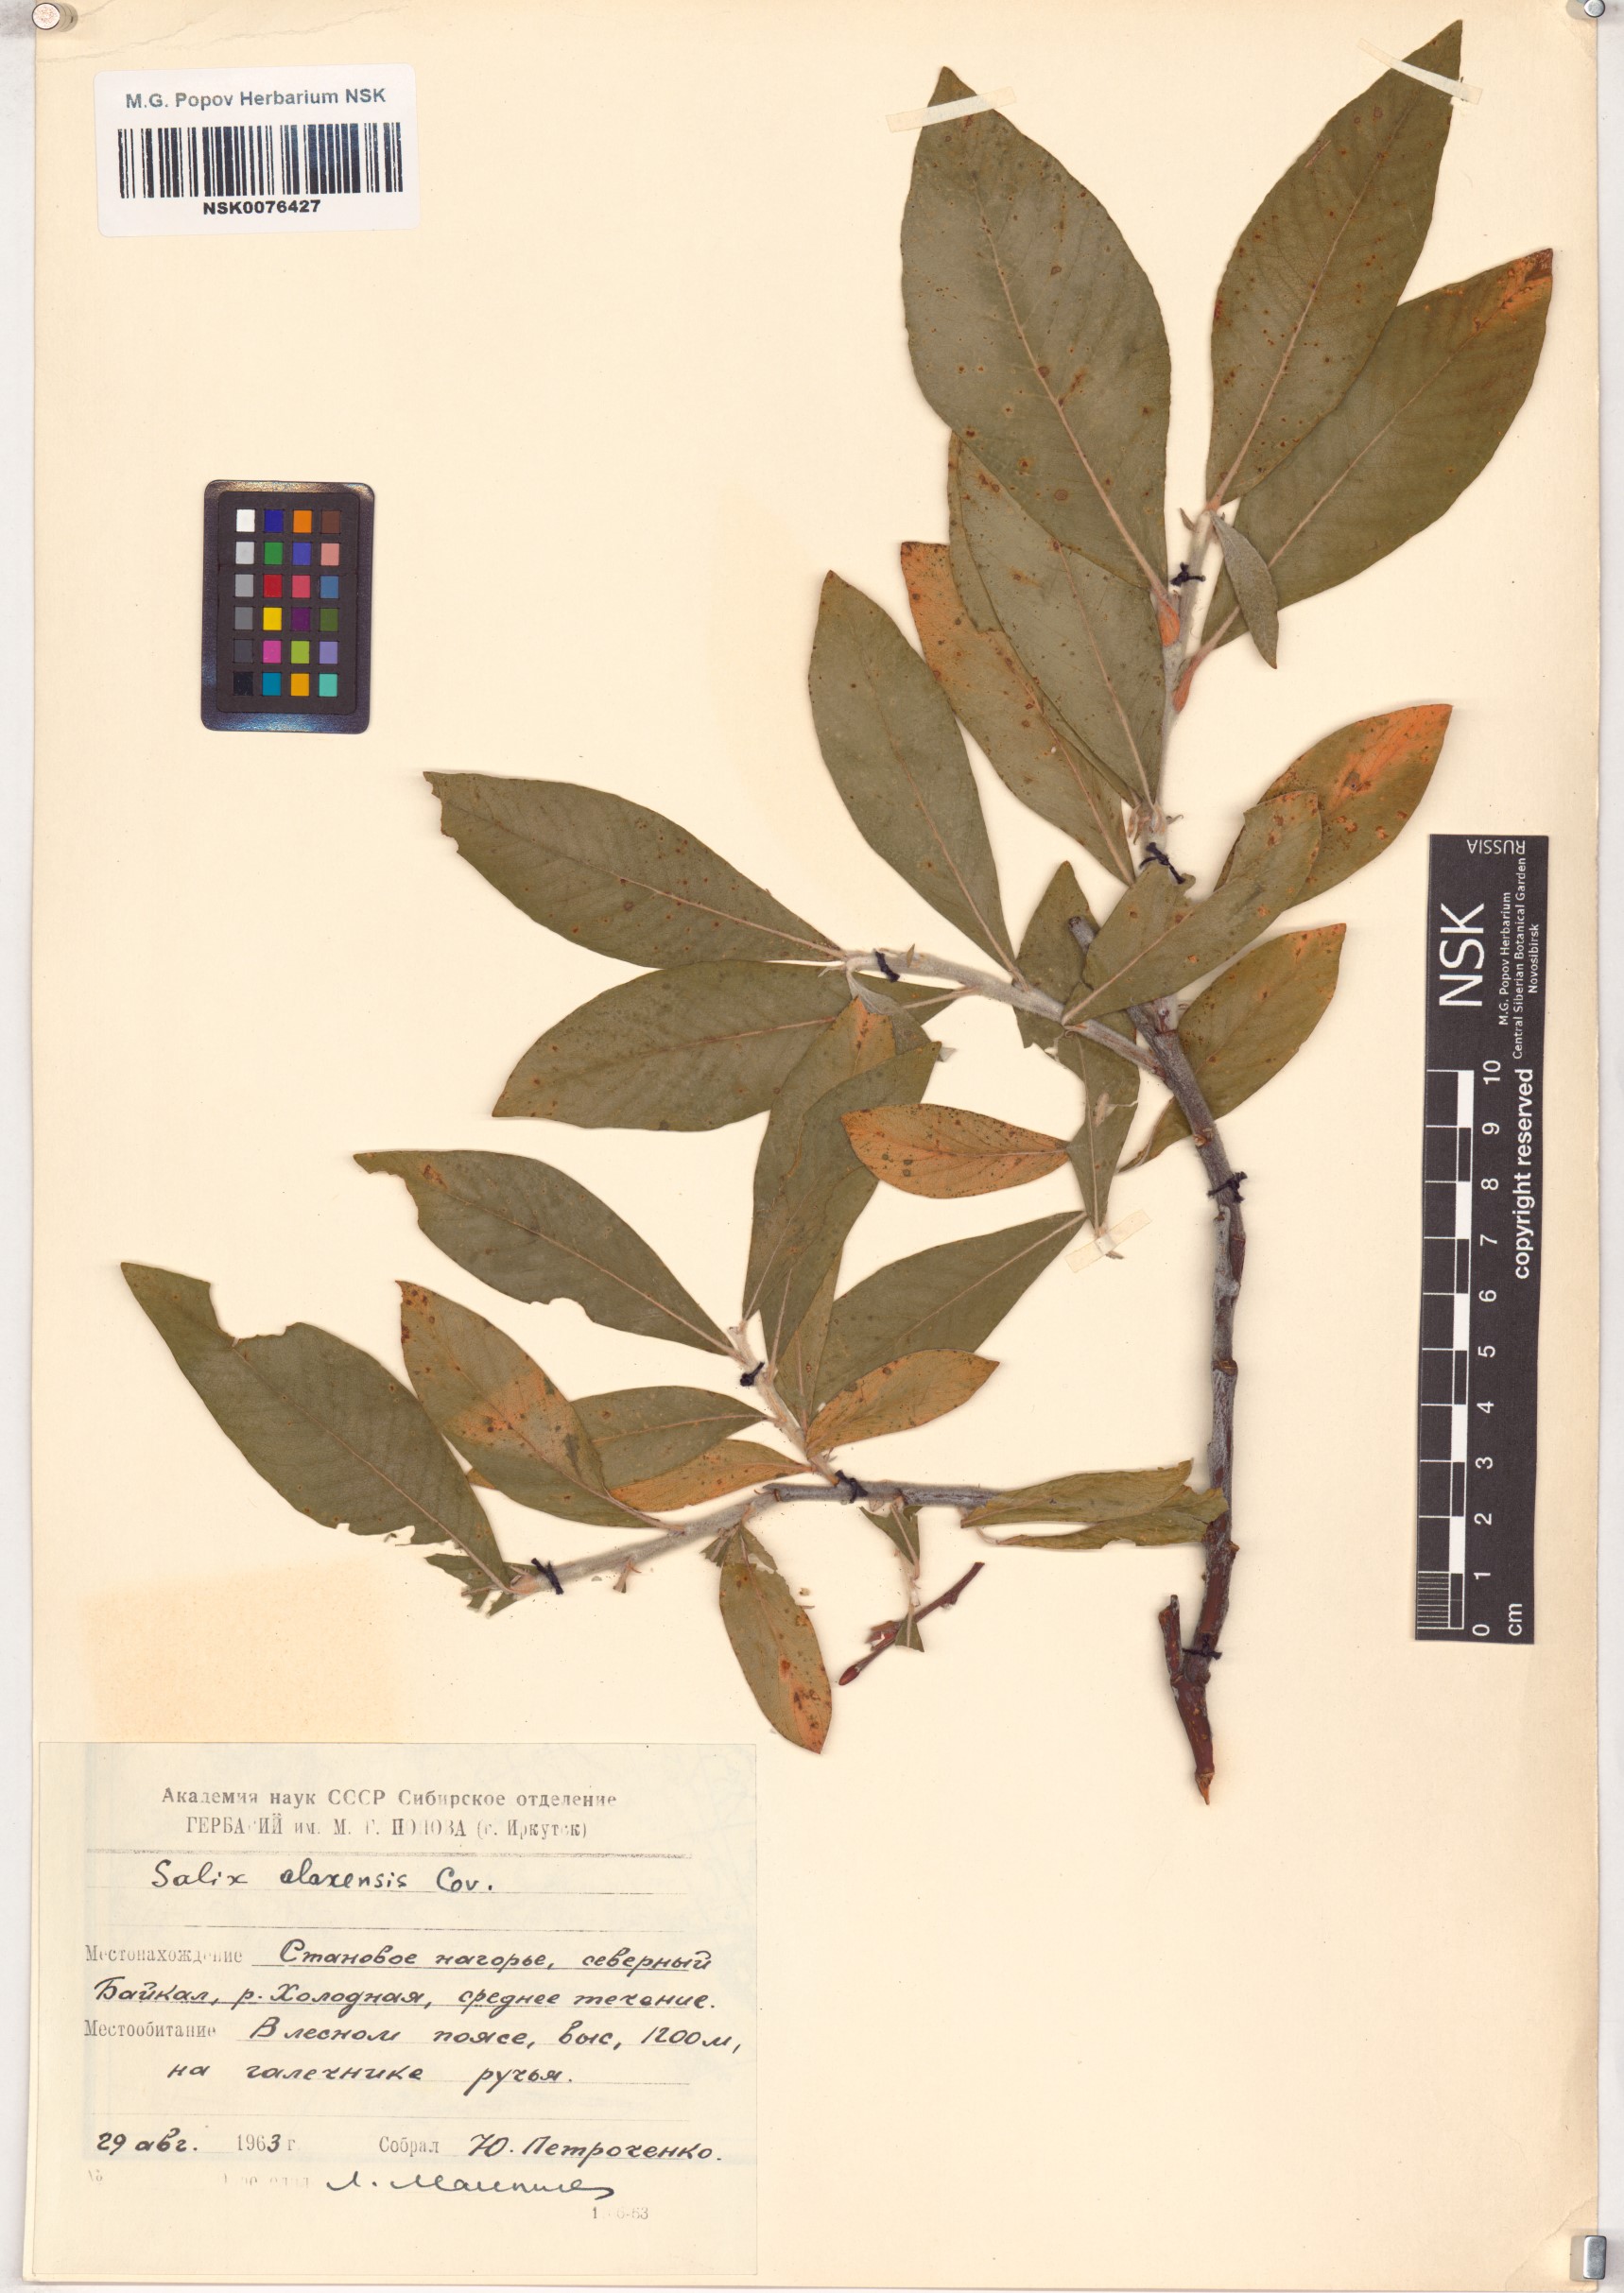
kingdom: Plantae
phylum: Tracheophyta
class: Magnoliopsida
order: Malpighiales
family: Salicaceae
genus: Salix
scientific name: Salix alaxensis
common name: Feltleaf willow
